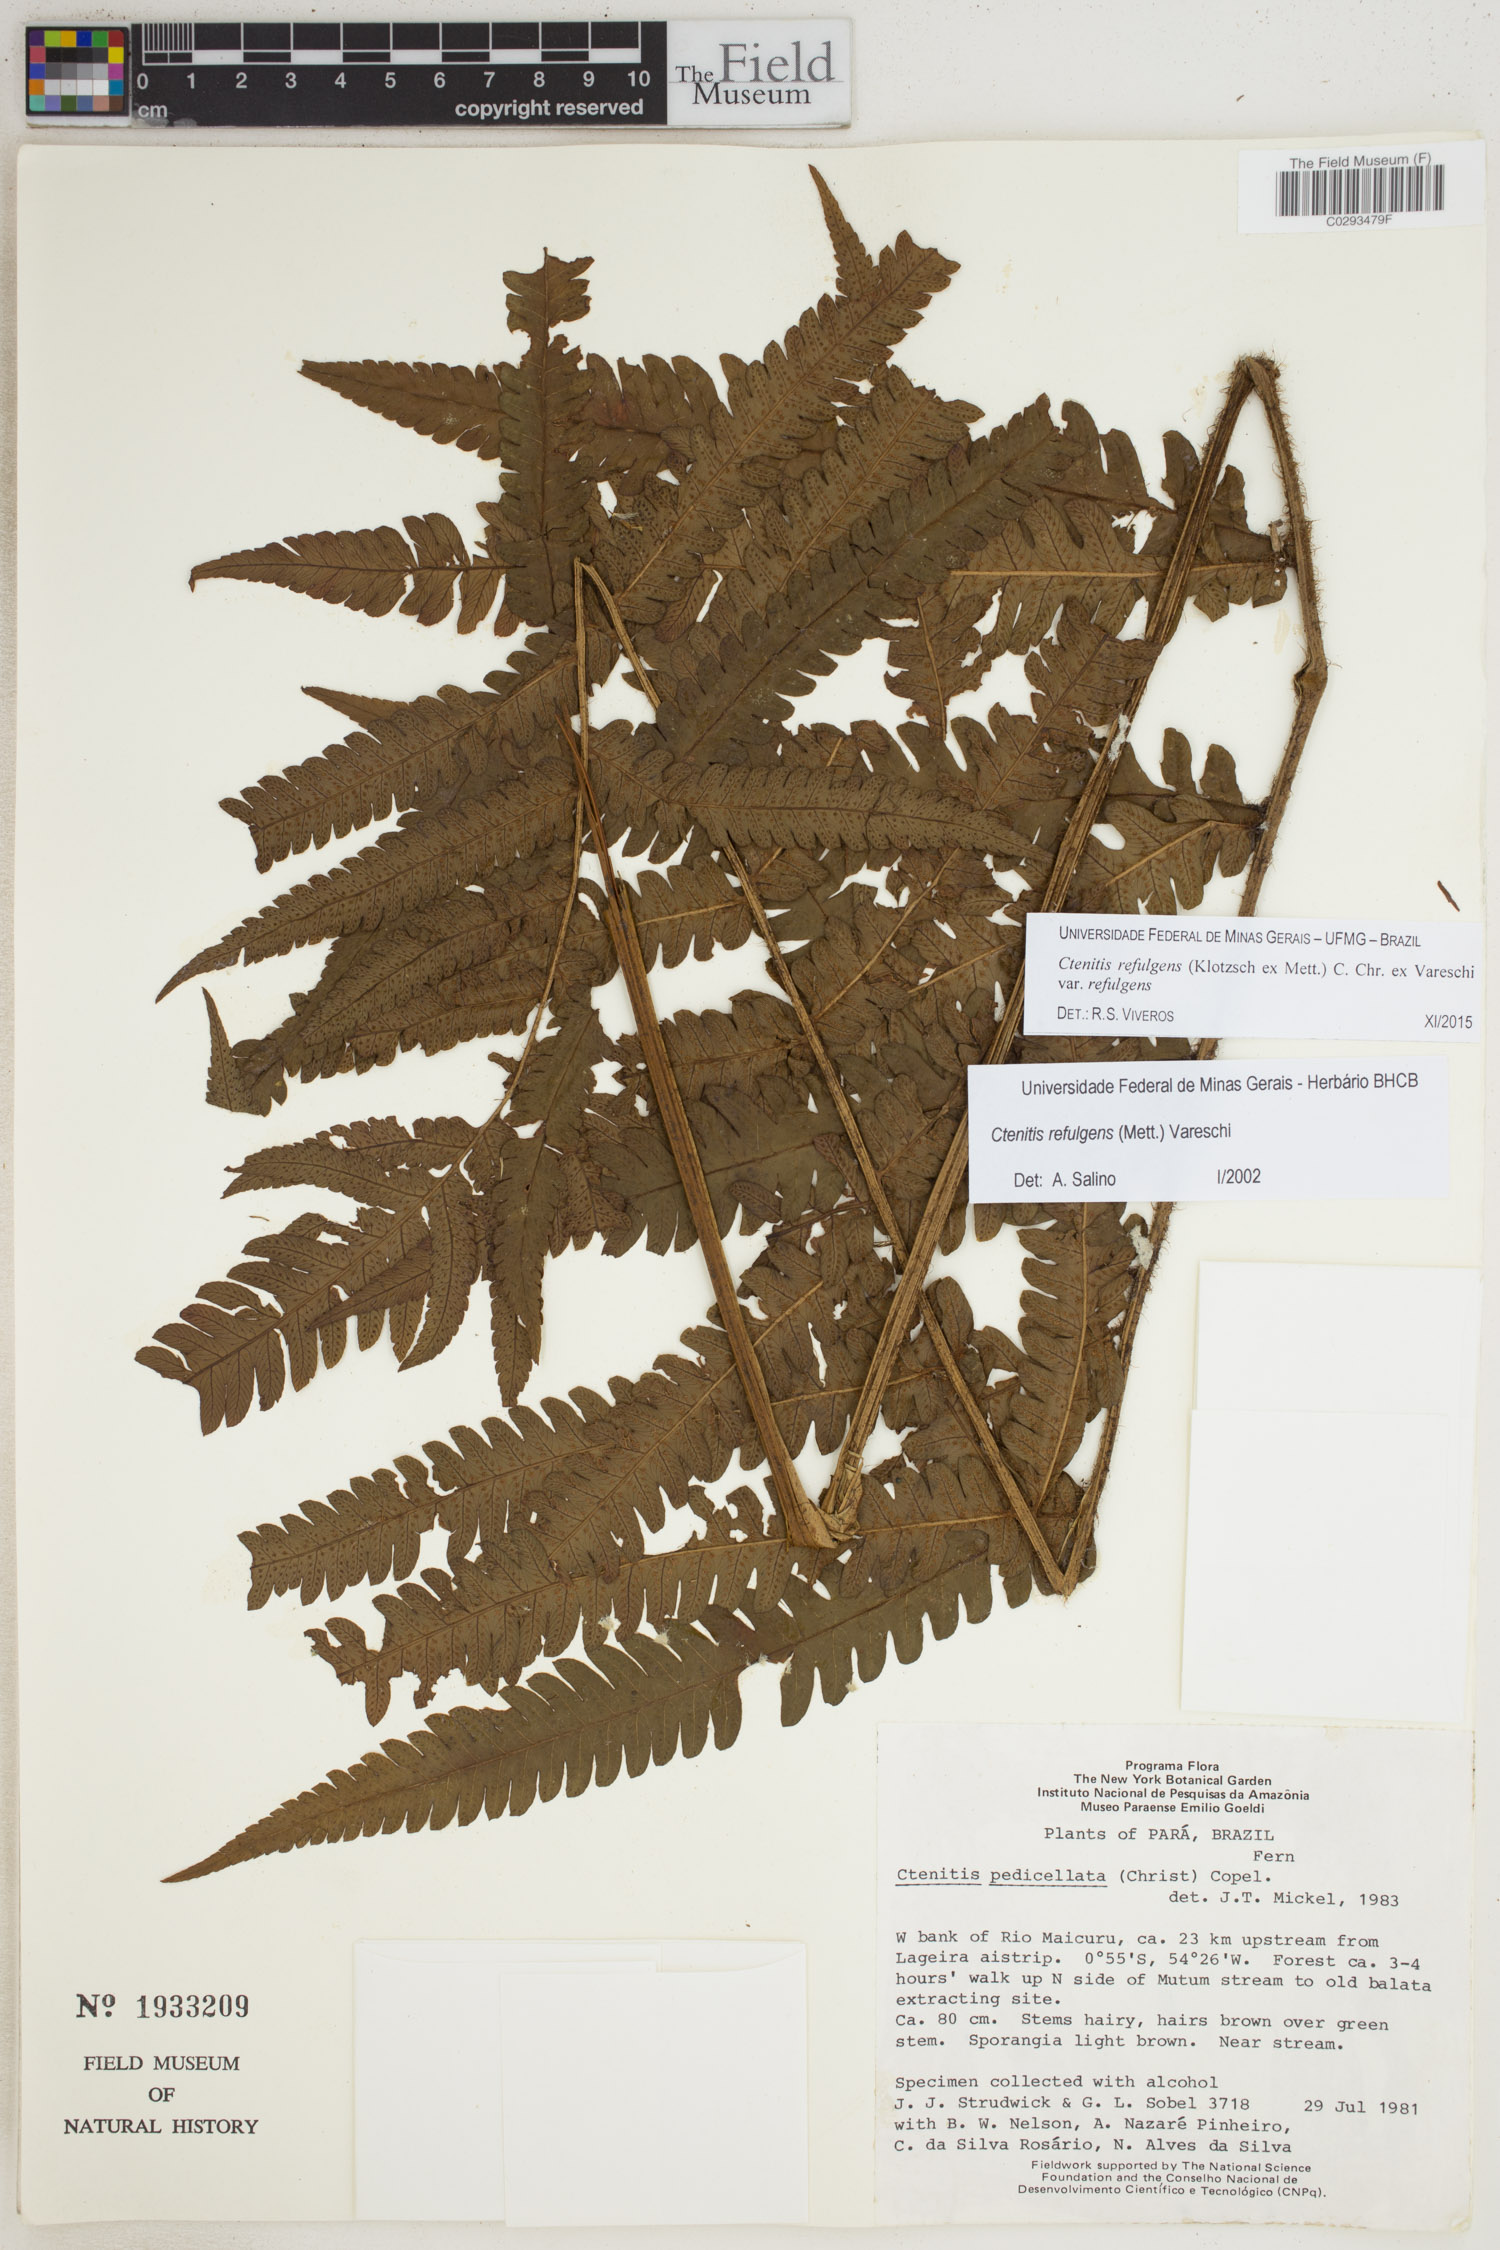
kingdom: Plantae
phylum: Tracheophyta
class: Polypodiopsida
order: Polypodiales
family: Dryopteridaceae
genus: Ctenitis
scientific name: Ctenitis refulgens
